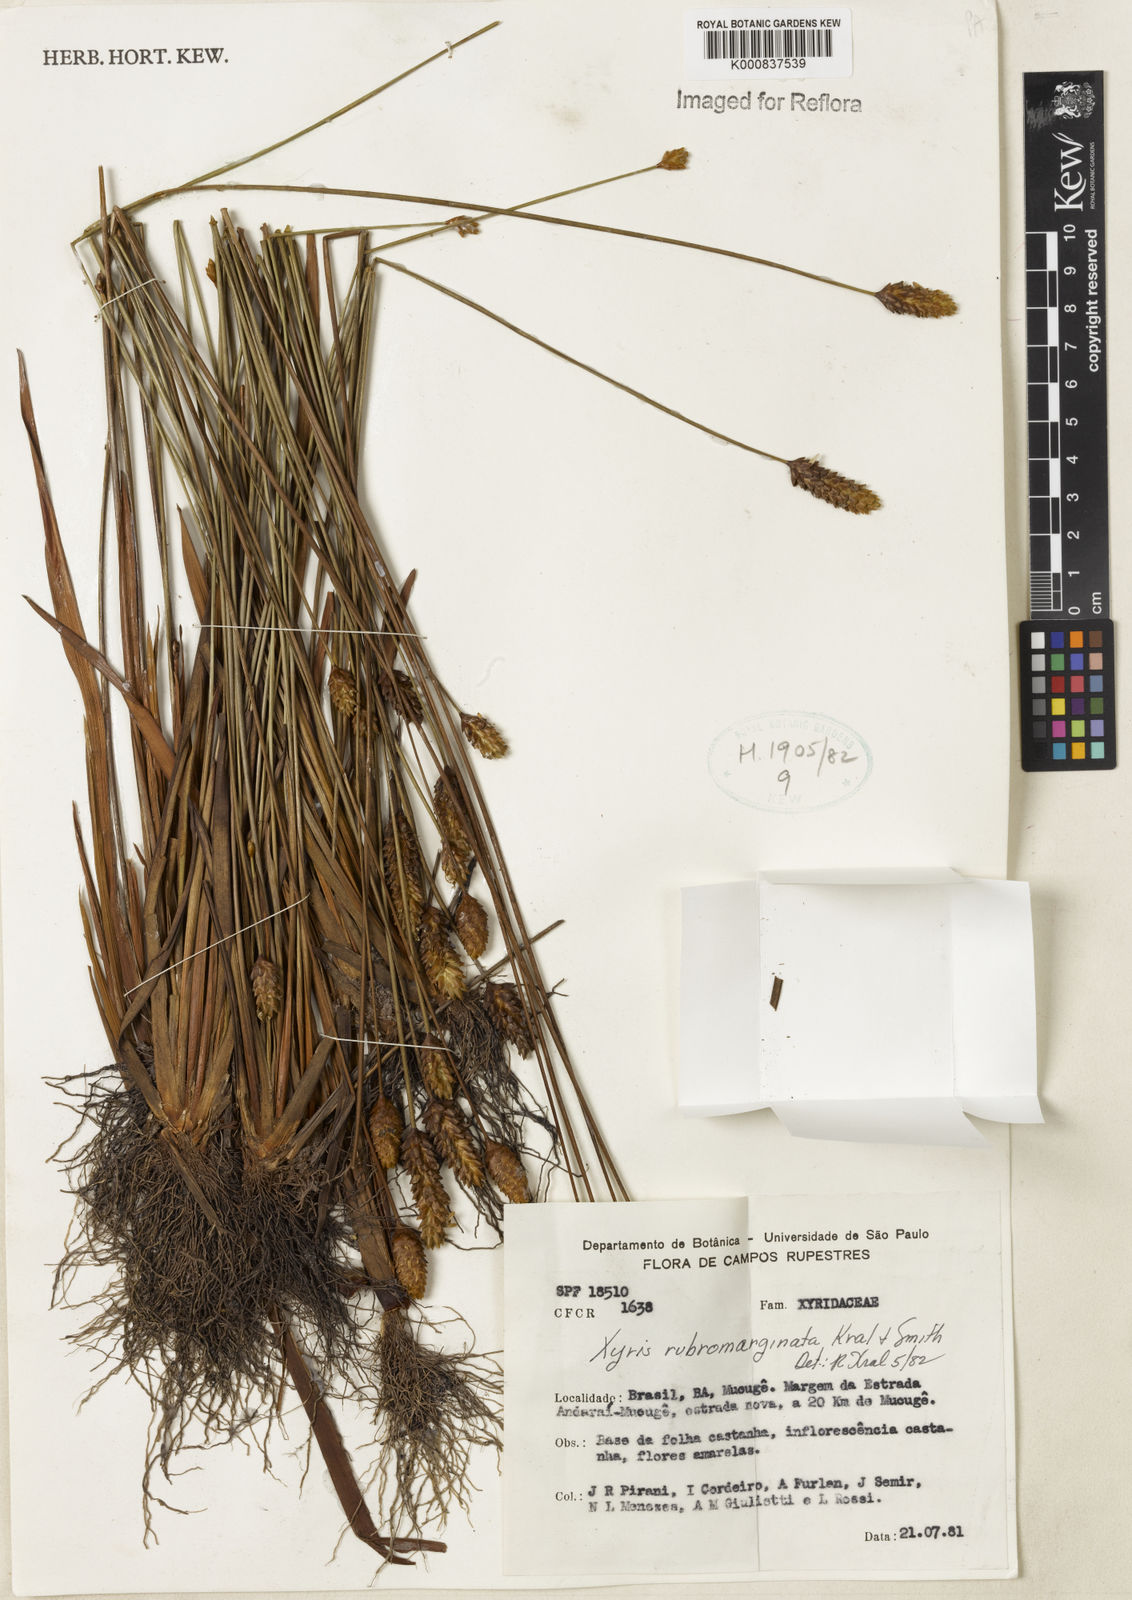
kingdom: Plantae
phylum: Tracheophyta
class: Liliopsida
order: Poales
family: Xyridaceae
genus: Xyris
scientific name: Xyris rubromarginata
